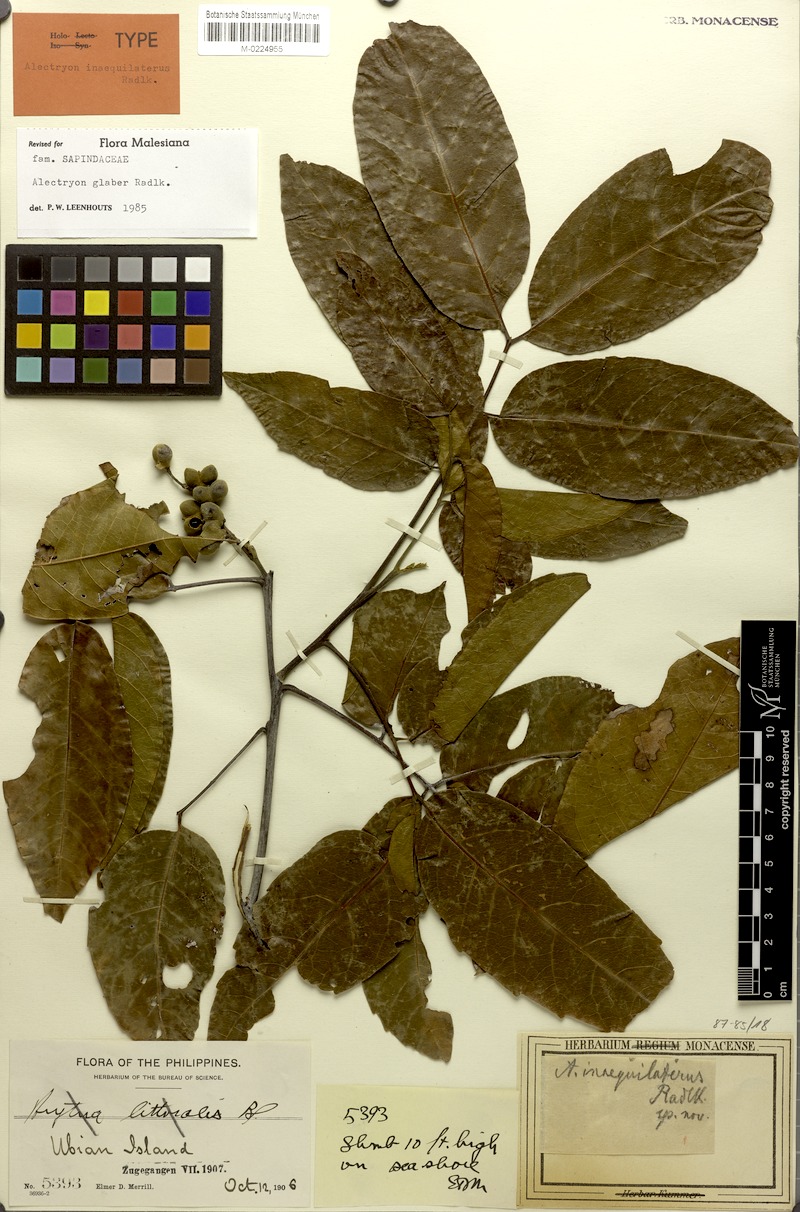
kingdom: Plantae
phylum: Tracheophyta
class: Magnoliopsida
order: Sapindales
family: Sapindaceae
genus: Alectryon
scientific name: Alectryon glaber
